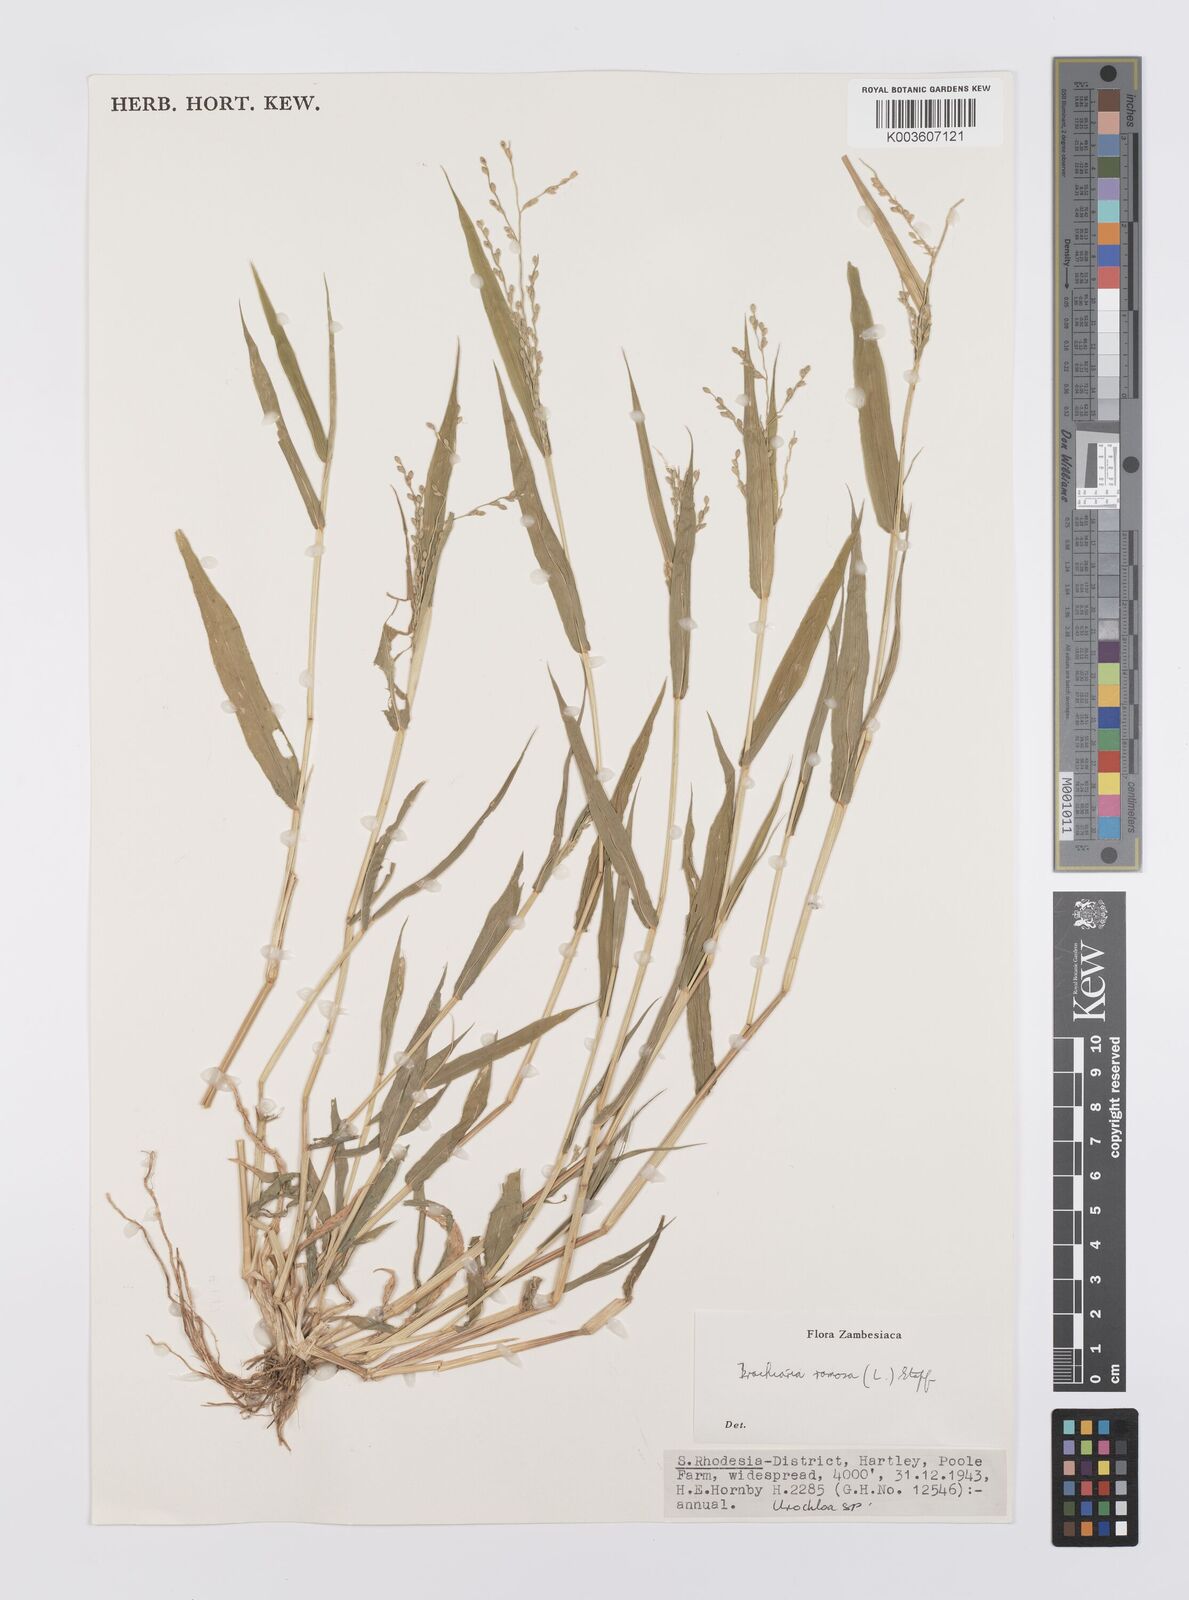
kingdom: Plantae
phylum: Tracheophyta
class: Liliopsida
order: Poales
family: Poaceae
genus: Urochloa
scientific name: Urochloa ramosa
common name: Browntop millet
